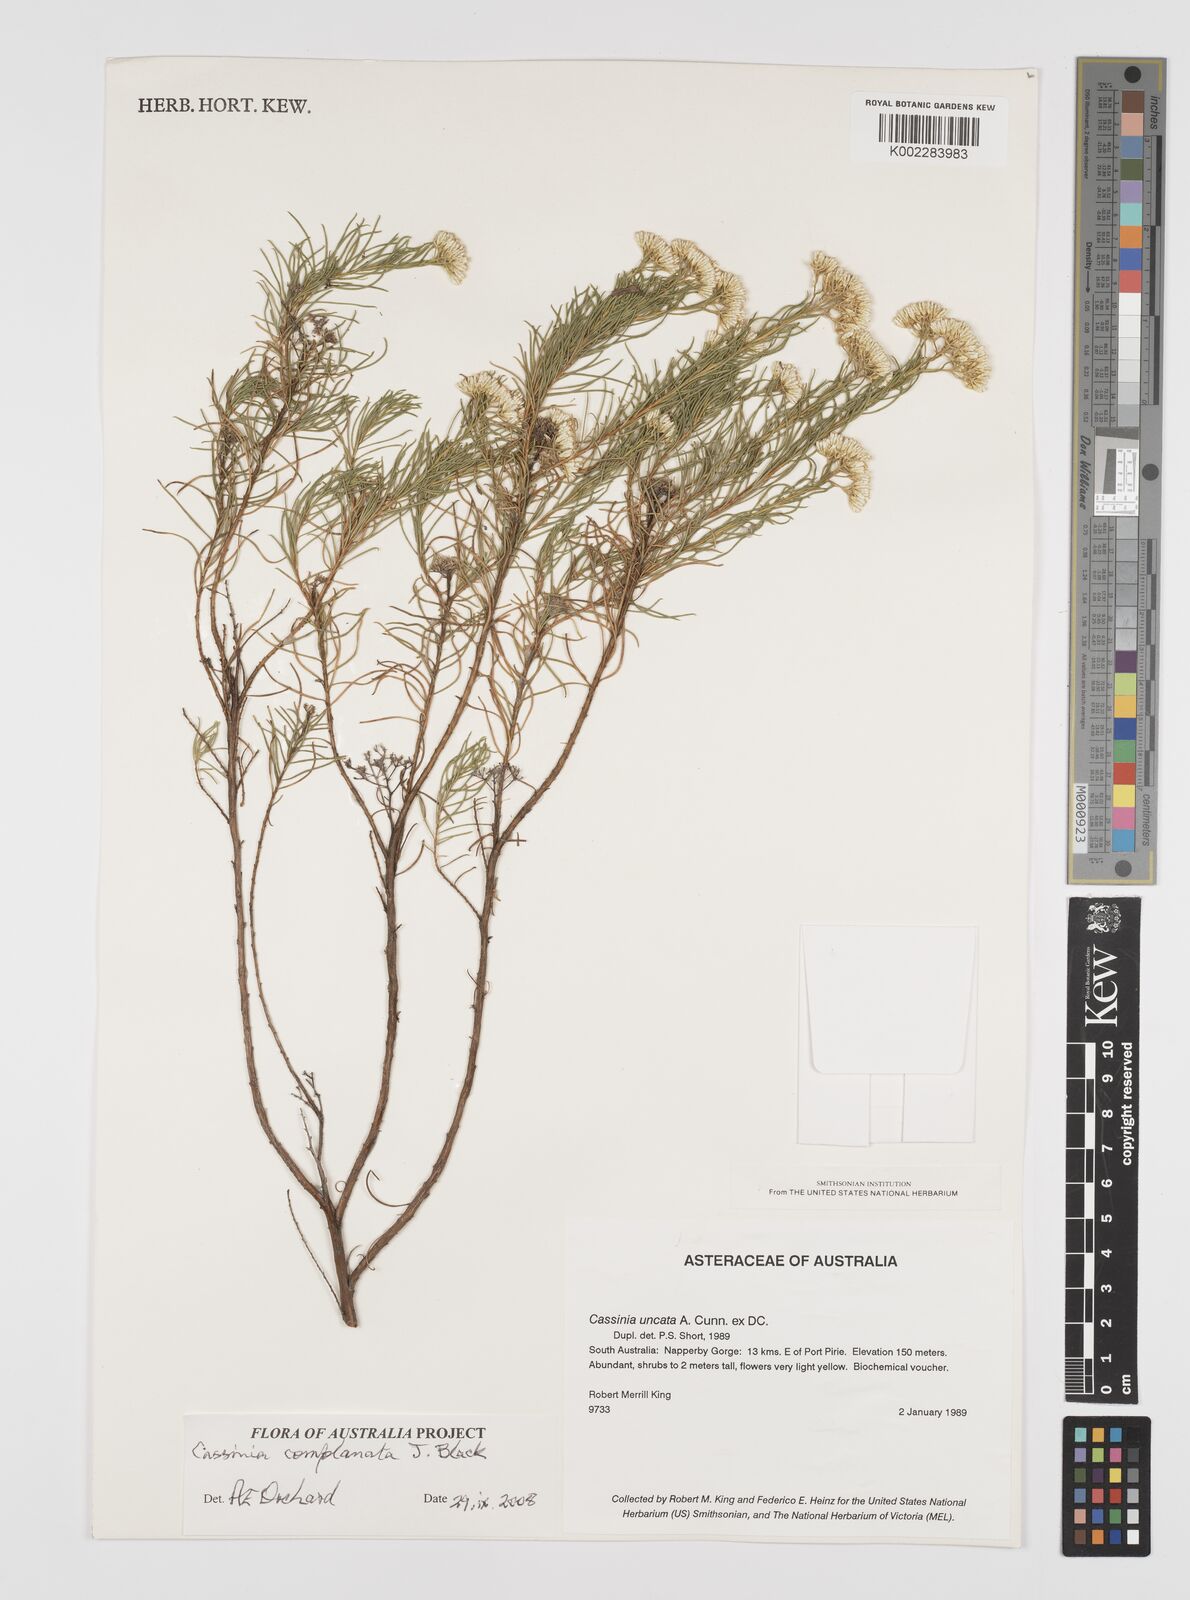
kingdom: Plantae
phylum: Tracheophyta
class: Magnoliopsida
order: Asterales
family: Asteraceae
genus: Cassinia
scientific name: Cassinia complanata
